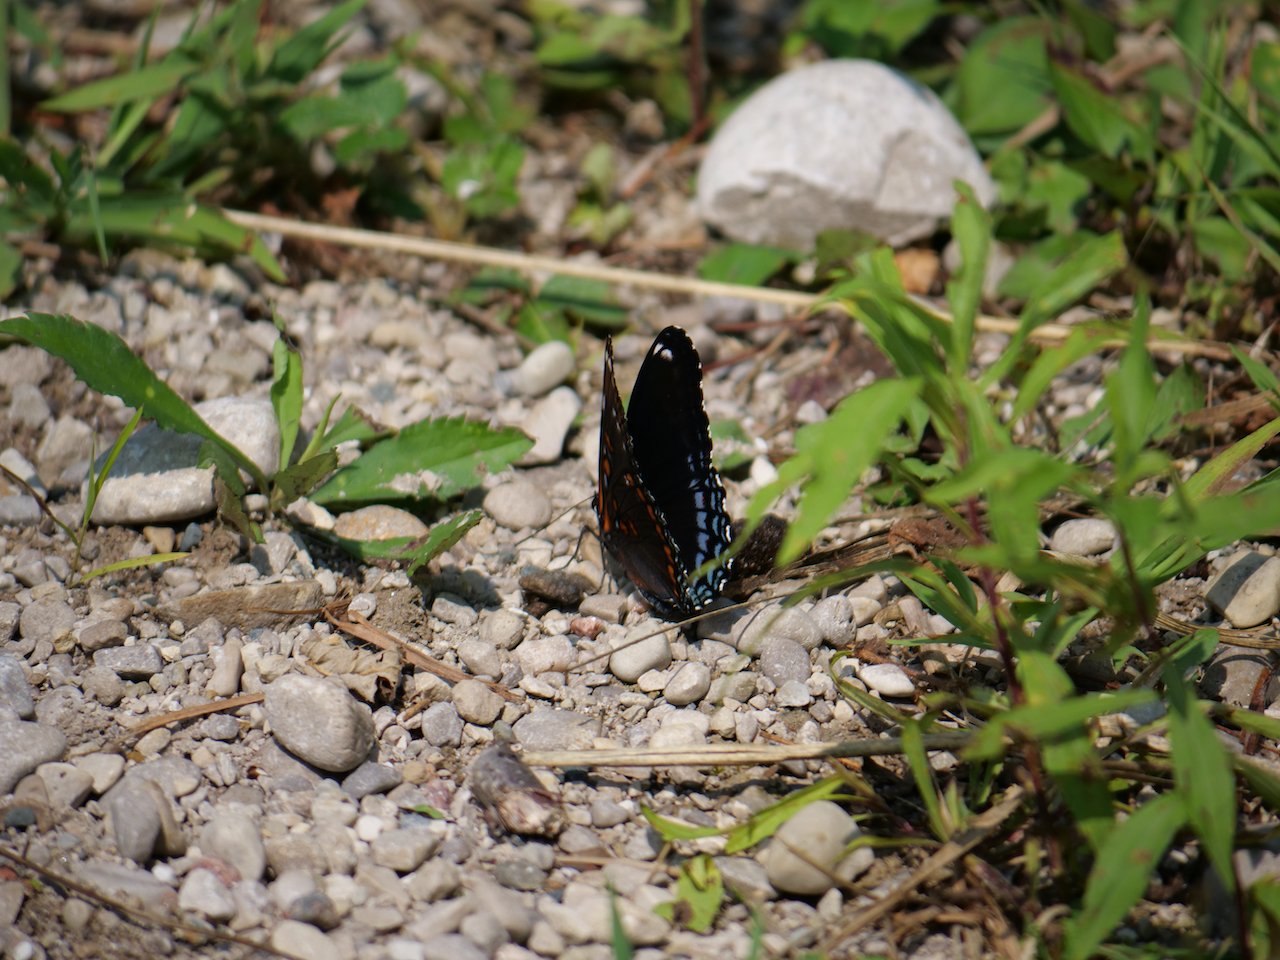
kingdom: Animalia
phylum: Arthropoda
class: Insecta
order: Lepidoptera
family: Nymphalidae
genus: Limenitis
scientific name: Limenitis arthemis
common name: Red-spotted Admiral
